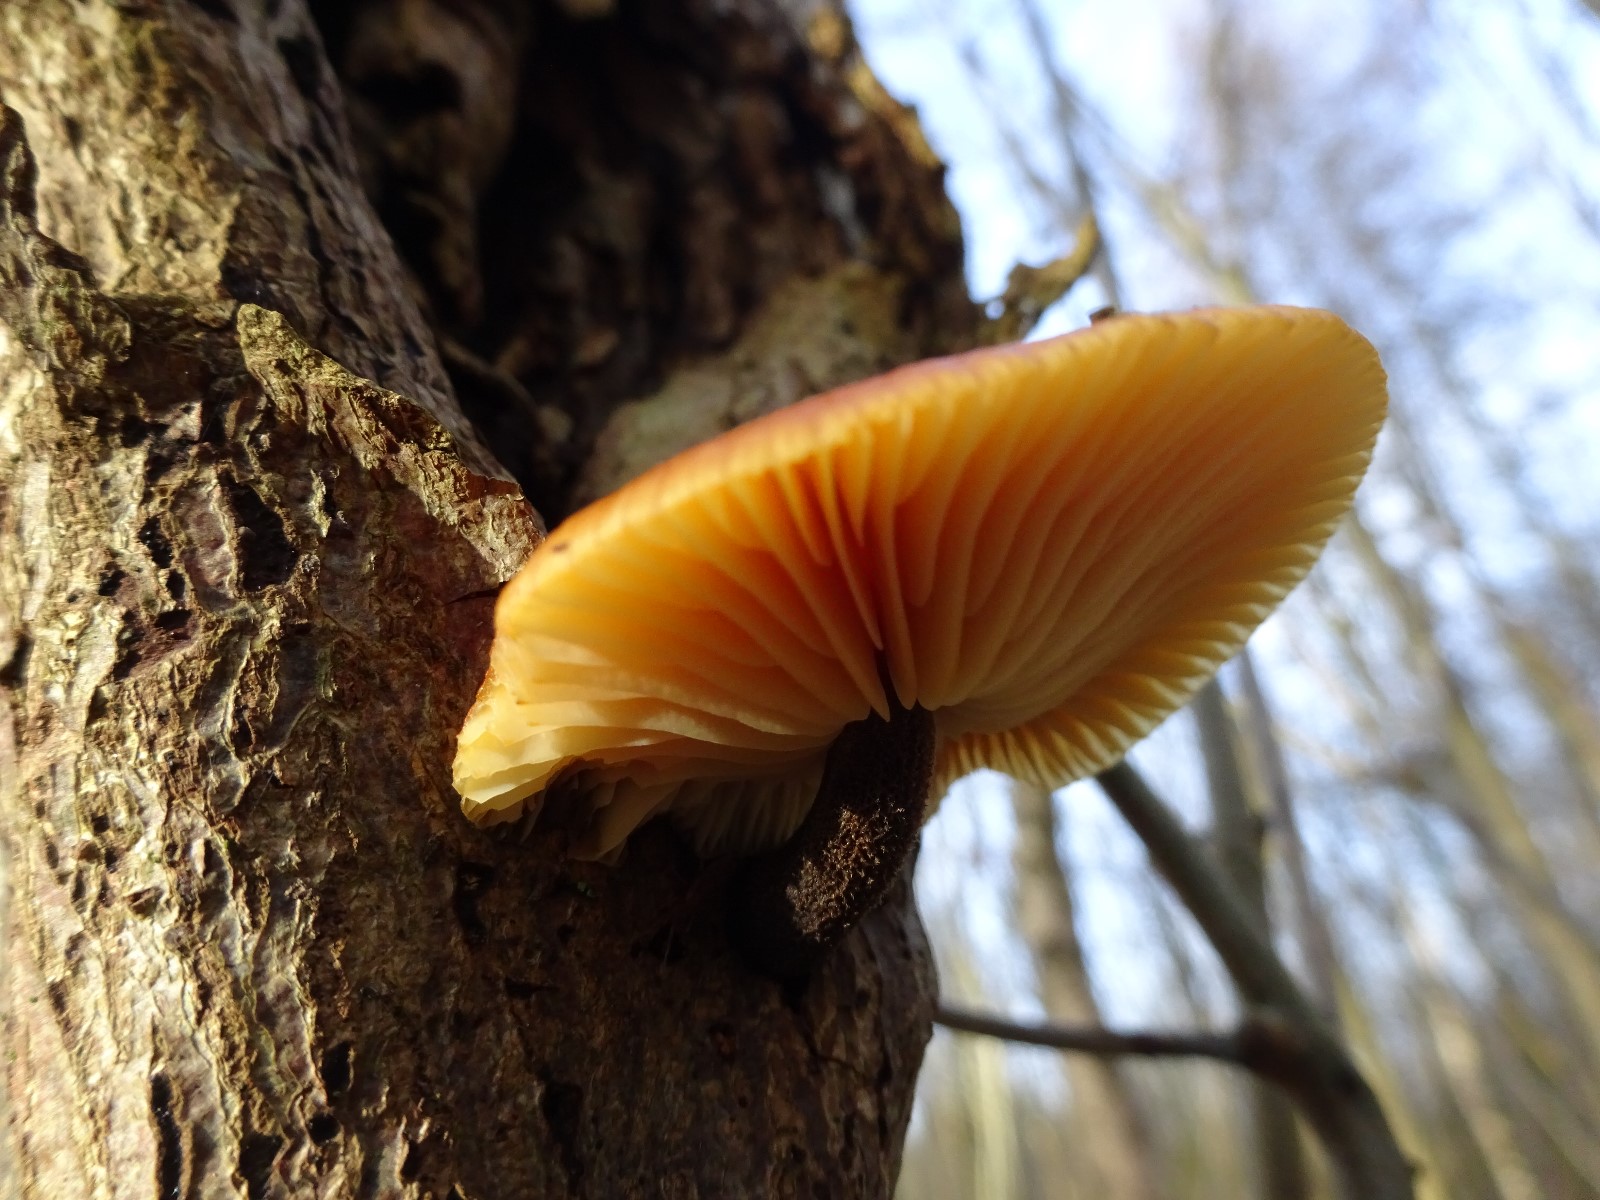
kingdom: Fungi
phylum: Basidiomycota
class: Agaricomycetes
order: Agaricales
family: Physalacriaceae
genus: Flammulina
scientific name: Flammulina velutipes
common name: gul fløjlsfod
